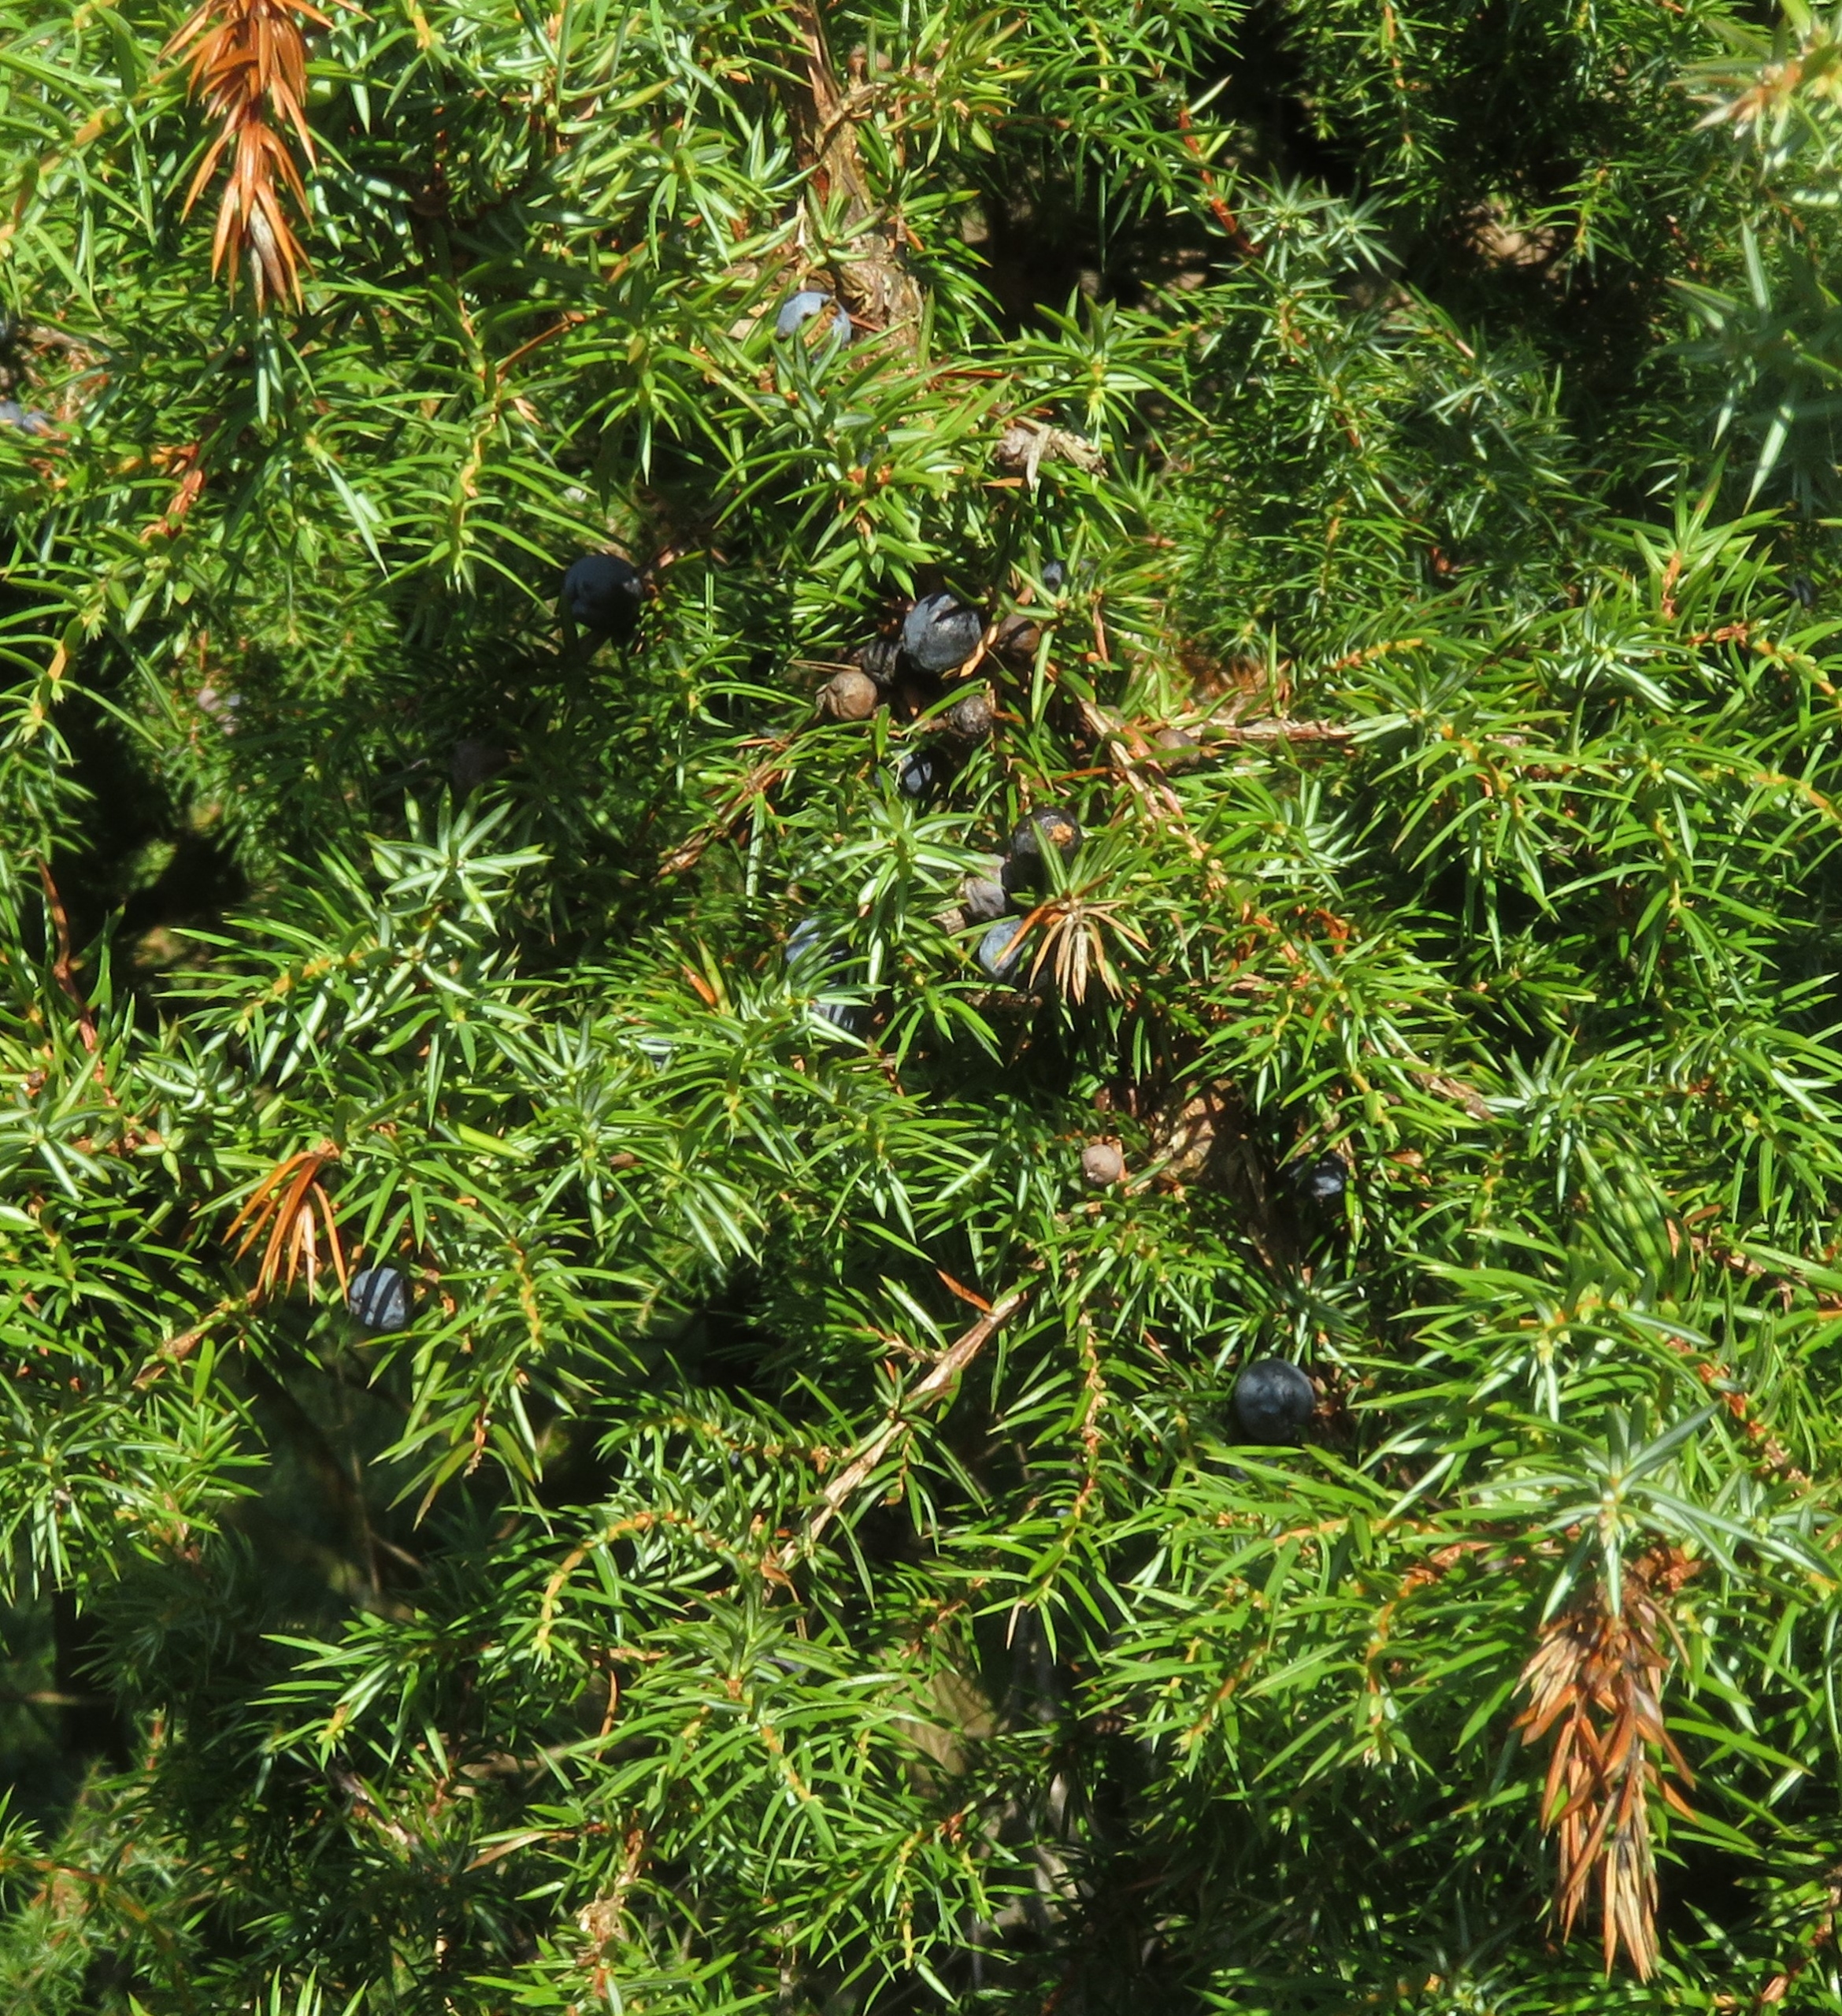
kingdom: Plantae
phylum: Tracheophyta
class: Pinopsida
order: Pinales
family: Cupressaceae
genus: Juniperus
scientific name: Juniperus communis
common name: Almindelig ene
